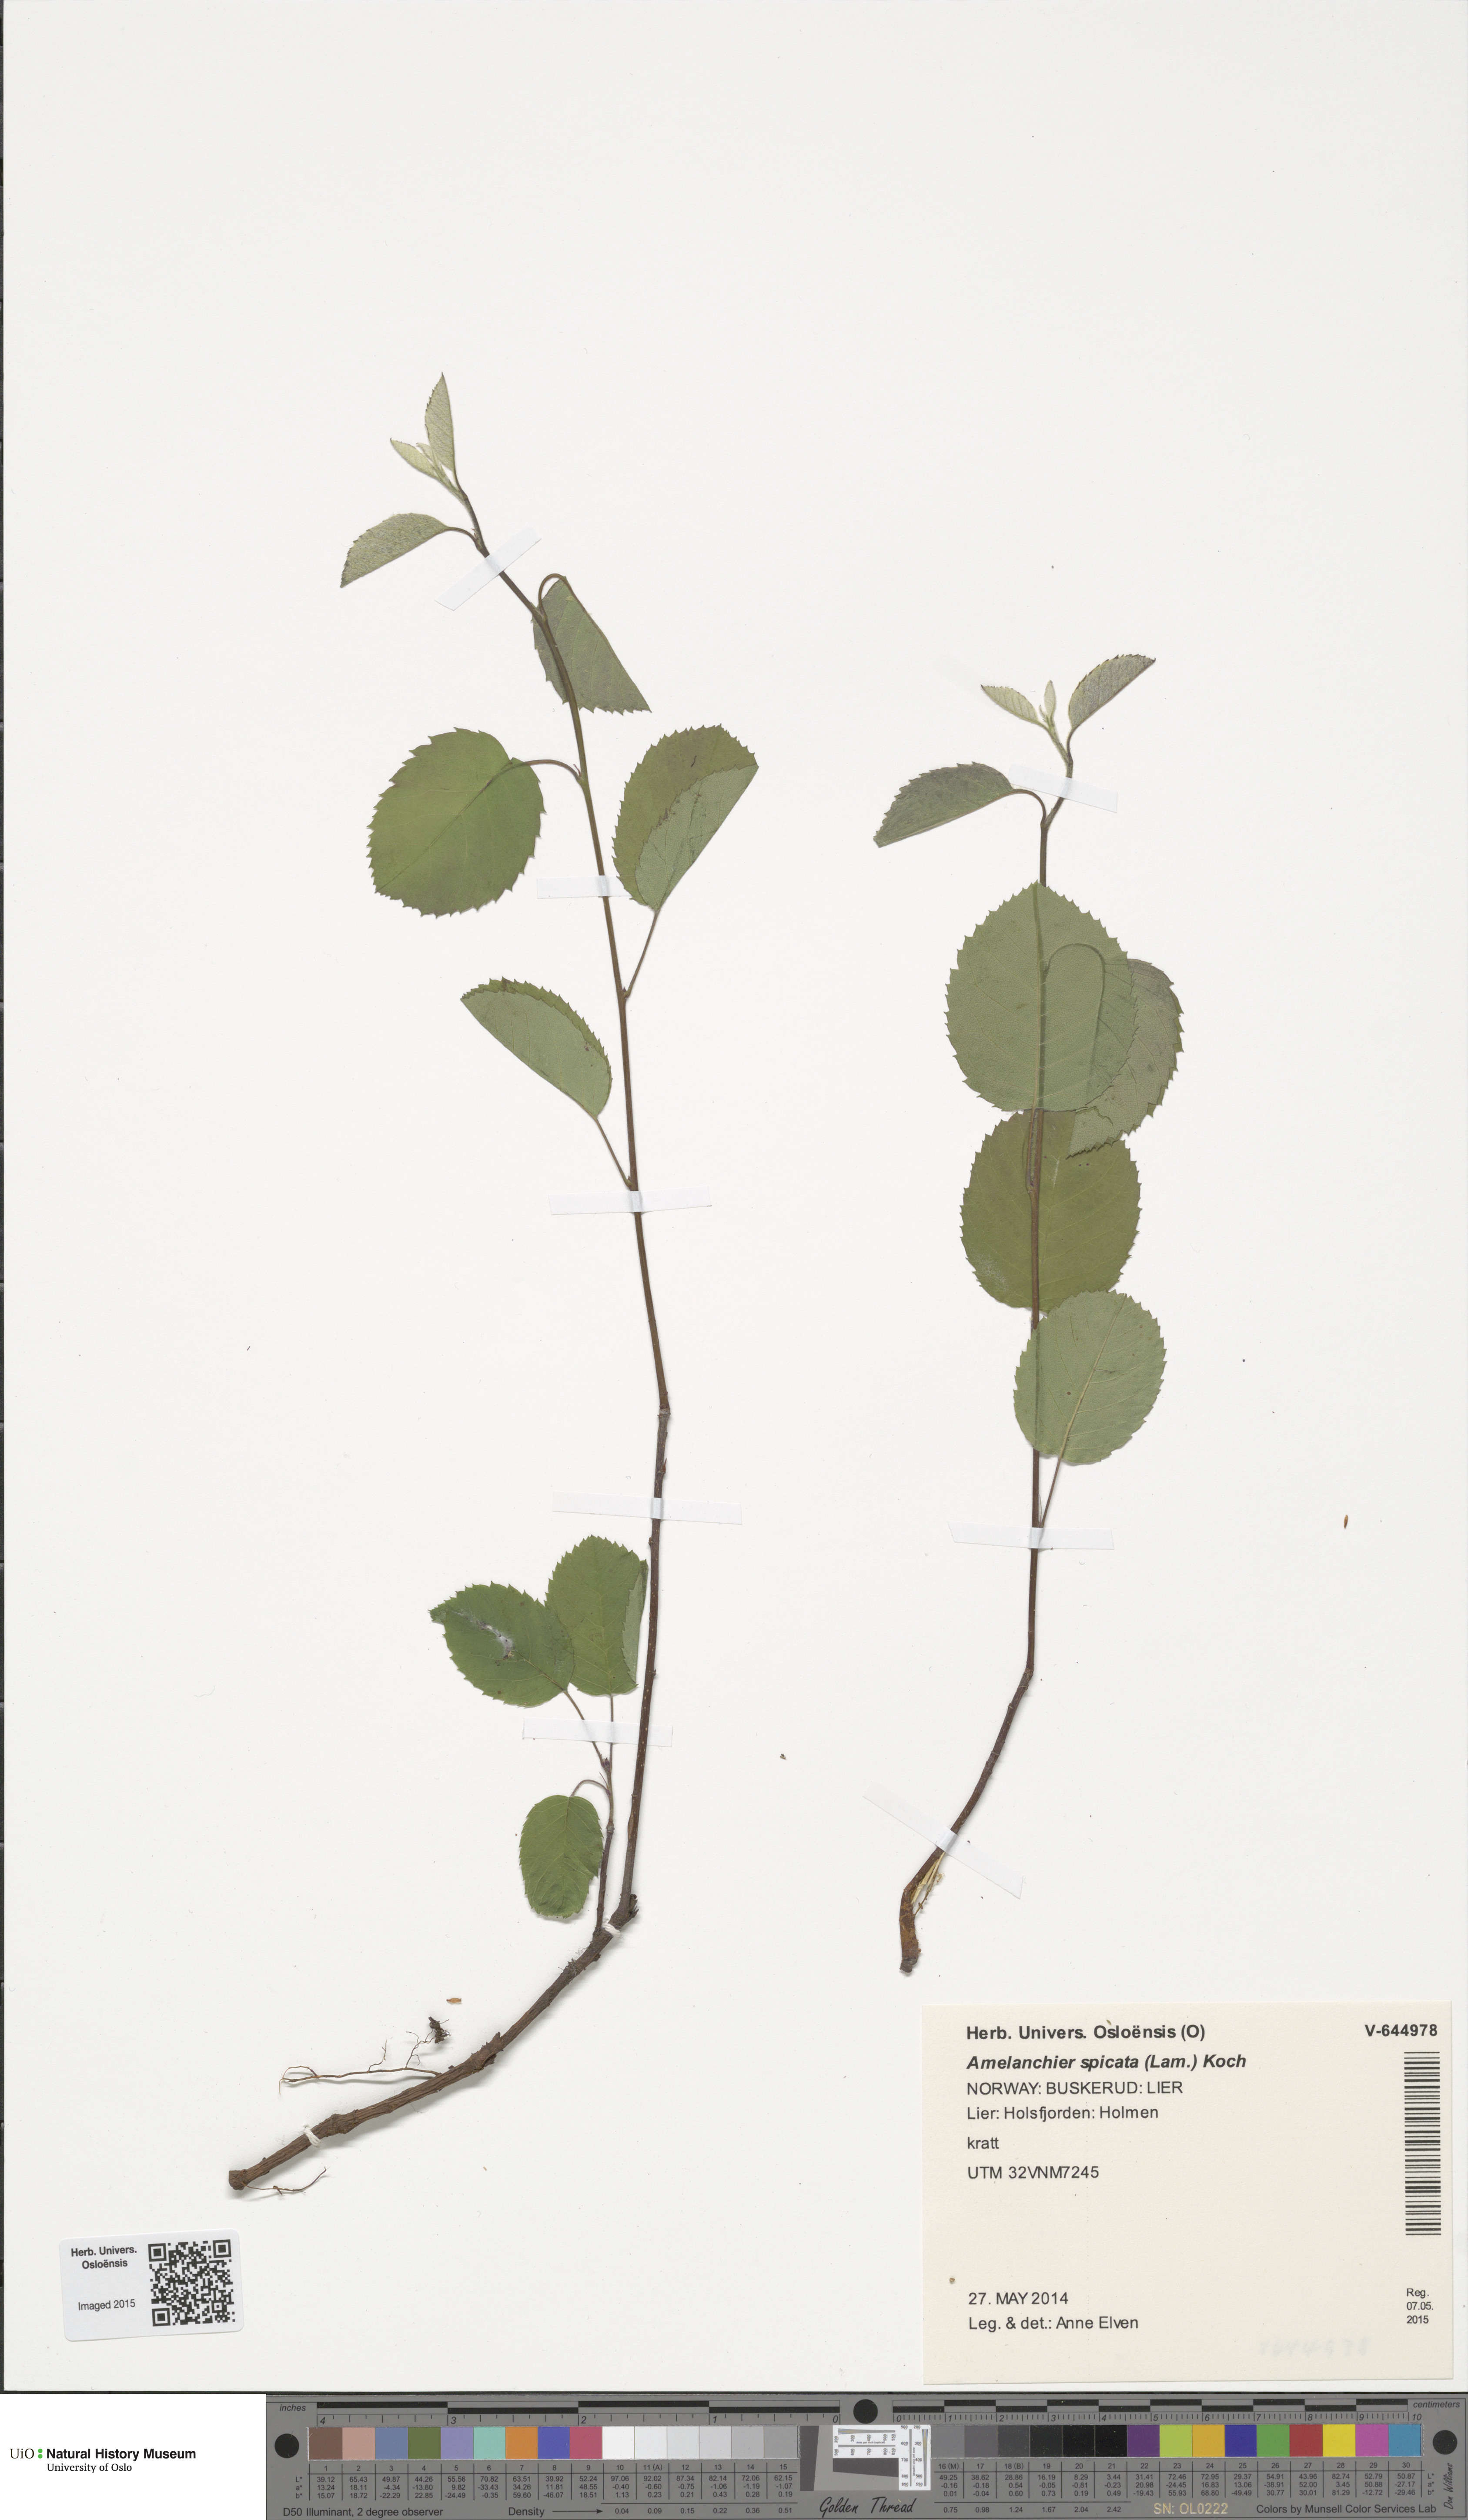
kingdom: Plantae
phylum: Tracheophyta
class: Magnoliopsida
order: Rosales
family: Rosaceae
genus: Amelanchier
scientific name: Amelanchier humilis
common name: Low juneberry
